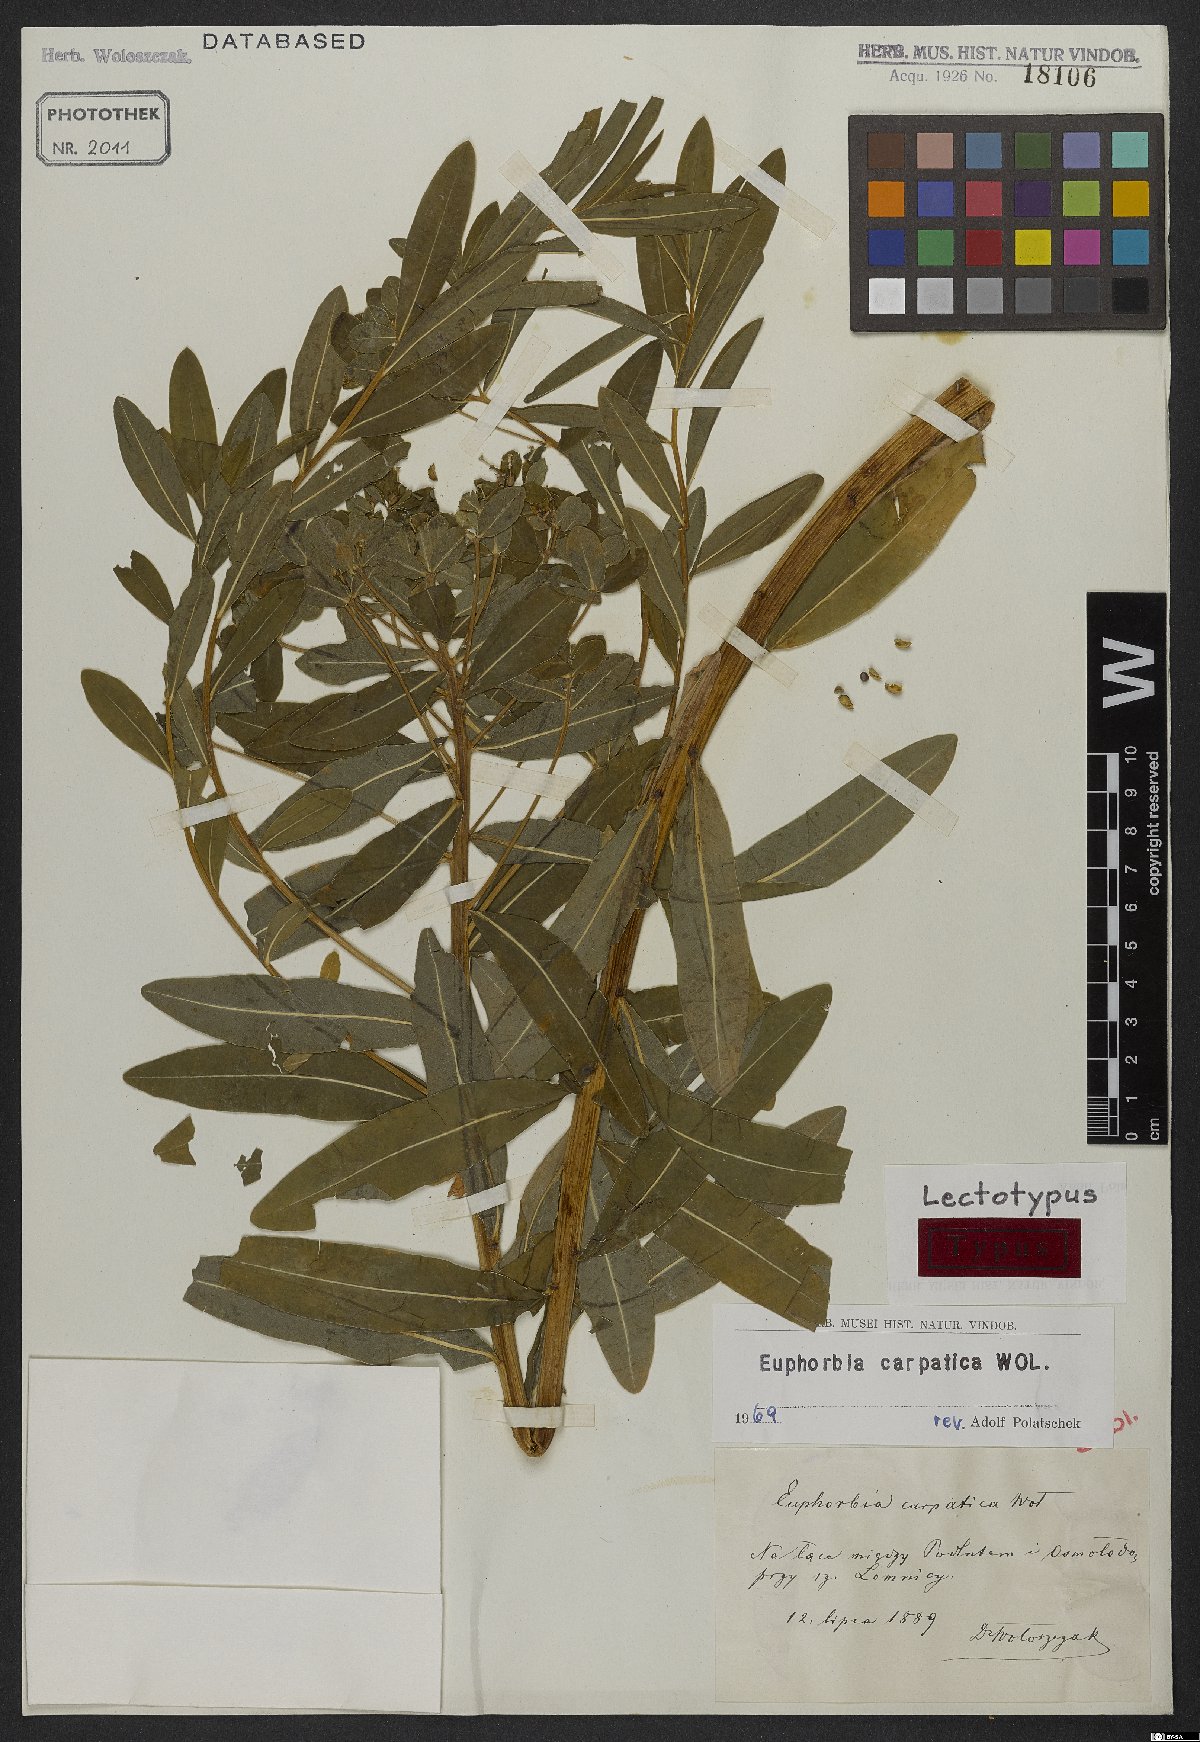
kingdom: Plantae
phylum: Tracheophyta
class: Magnoliopsida
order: Malpighiales
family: Euphorbiaceae
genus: Euphorbia
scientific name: Euphorbia carpatica
